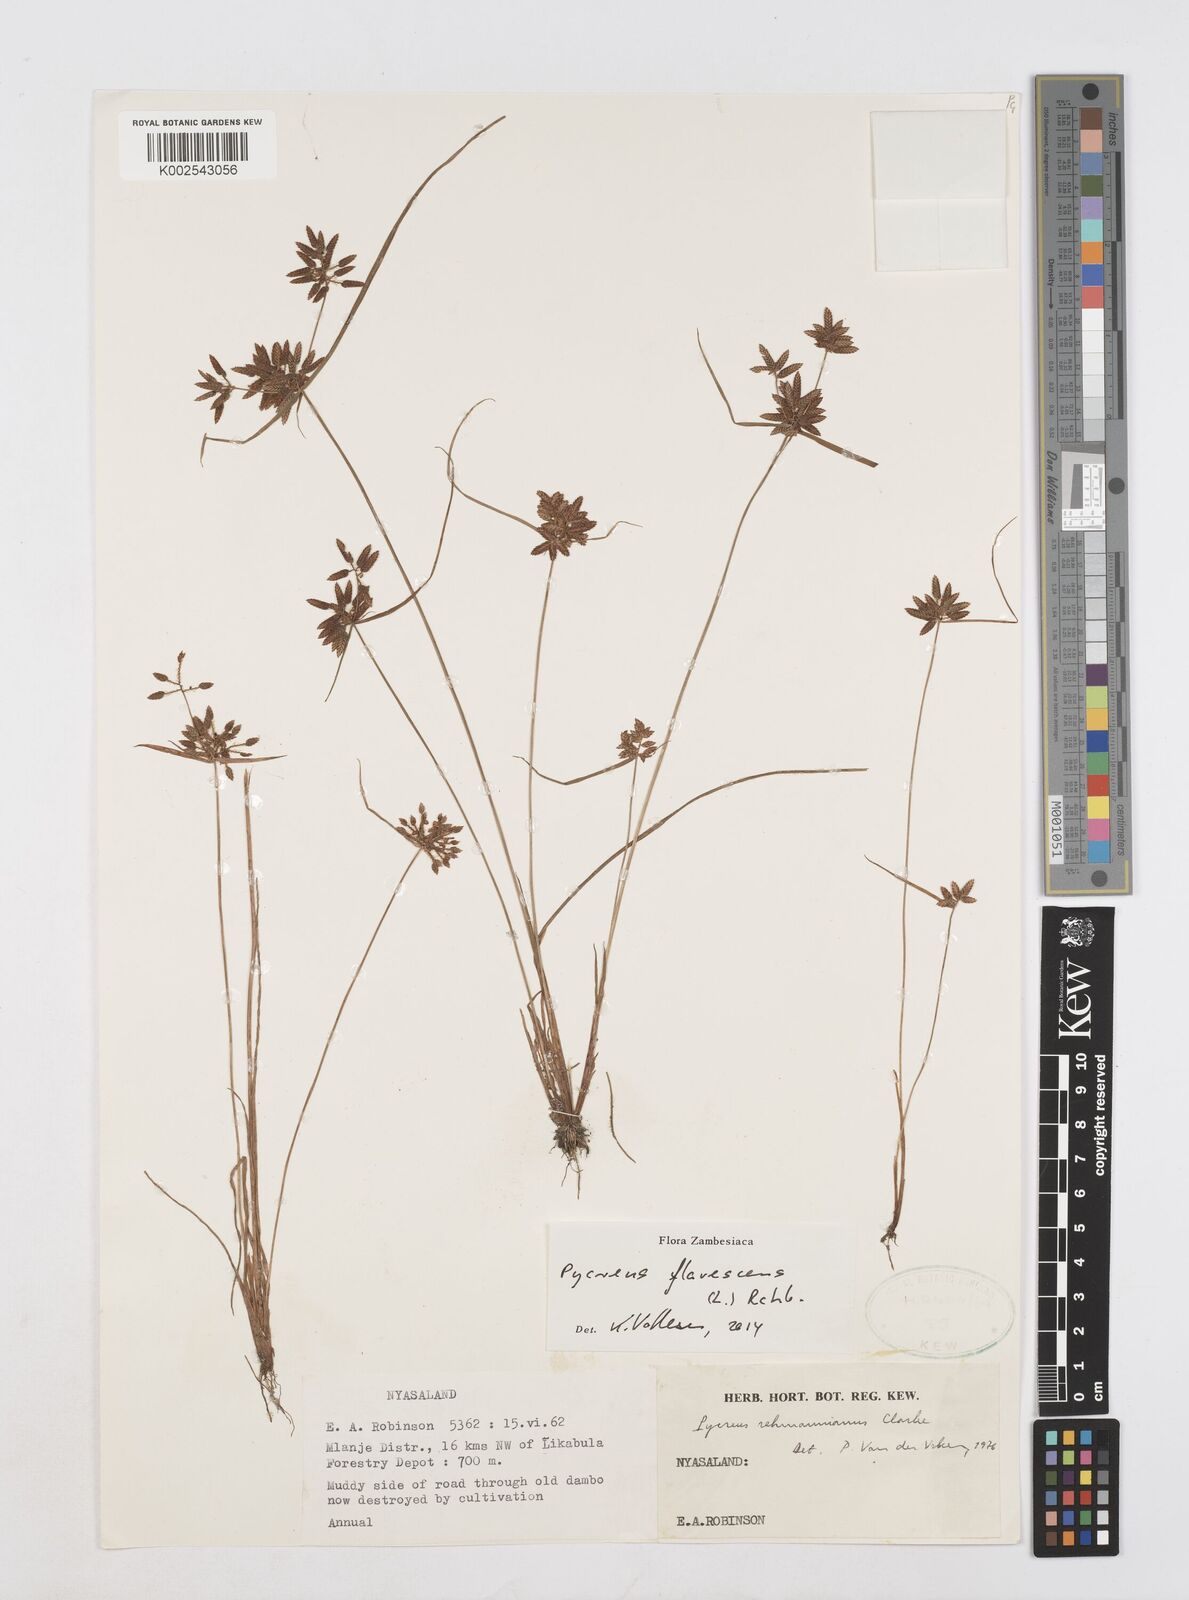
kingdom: Plantae
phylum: Tracheophyta
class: Liliopsida
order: Poales
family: Cyperaceae
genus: Cyperus
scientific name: Cyperus flavescens
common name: Yellow galingale
